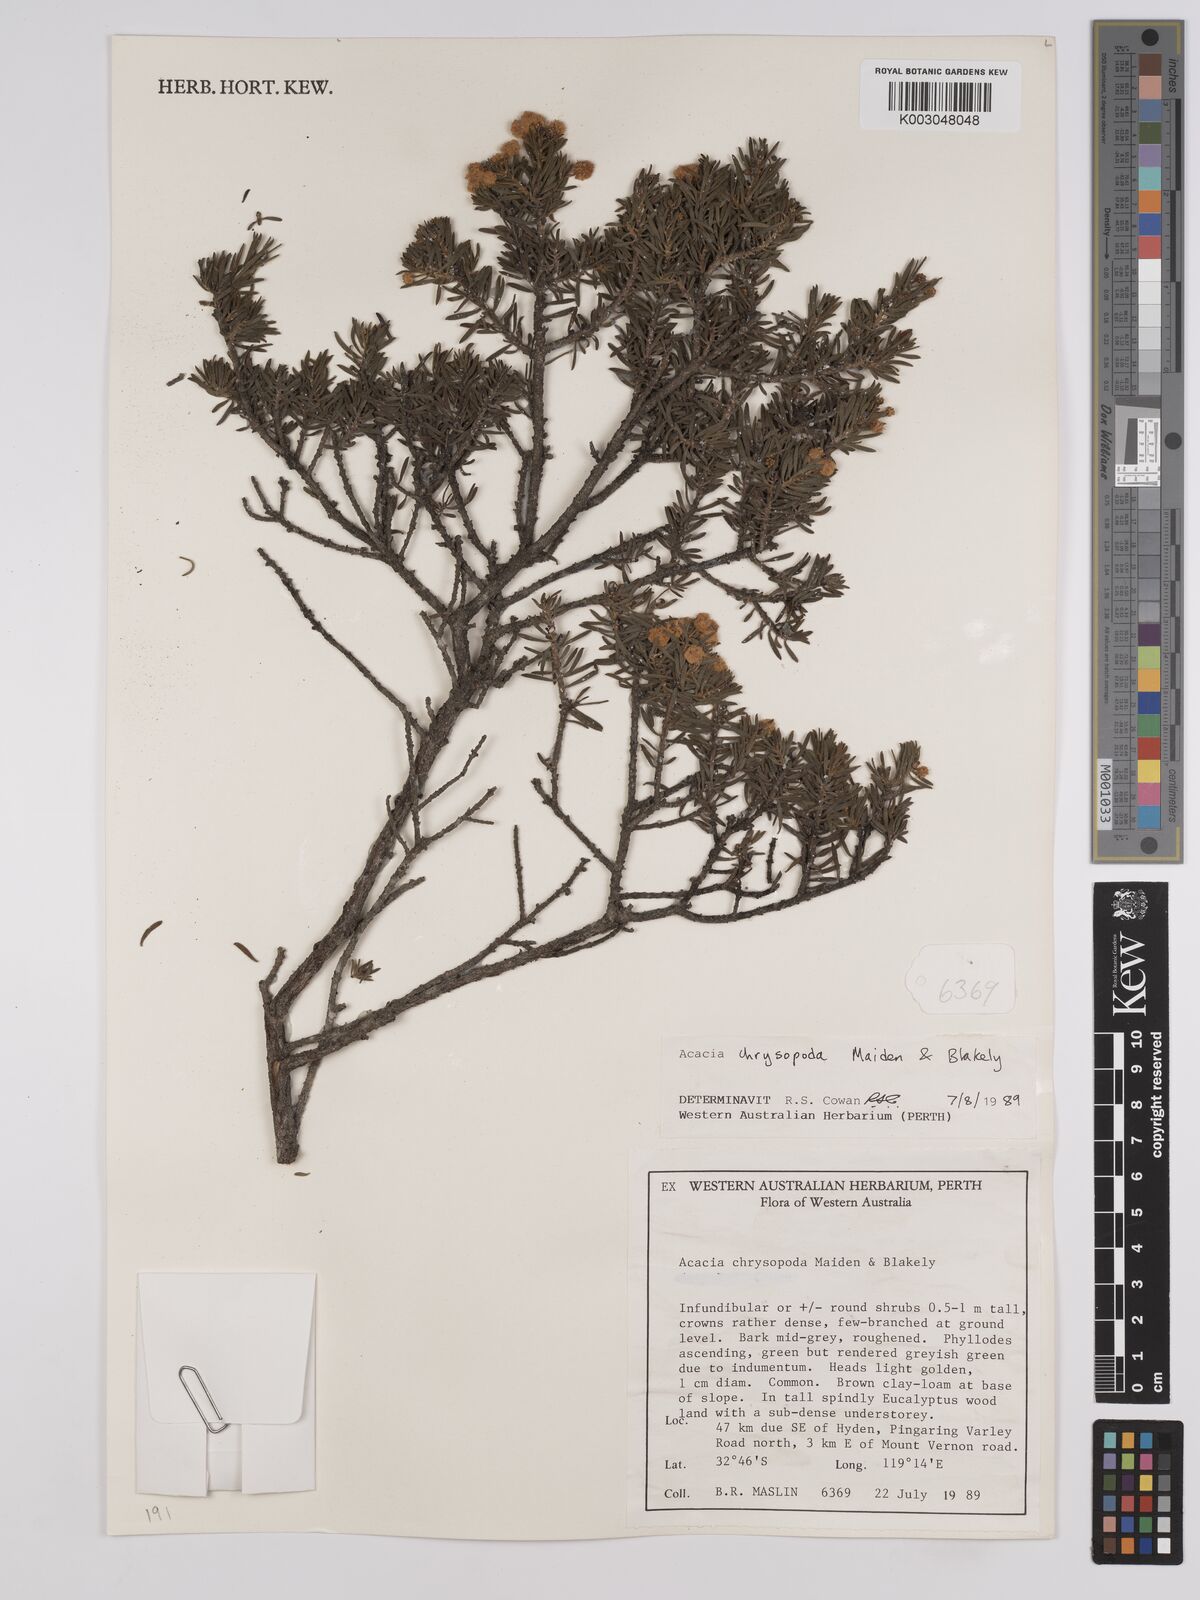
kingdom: Plantae
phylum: Tracheophyta
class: Magnoliopsida
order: Fabales
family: Fabaceae
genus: Acacia
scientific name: Acacia chrysopoda
